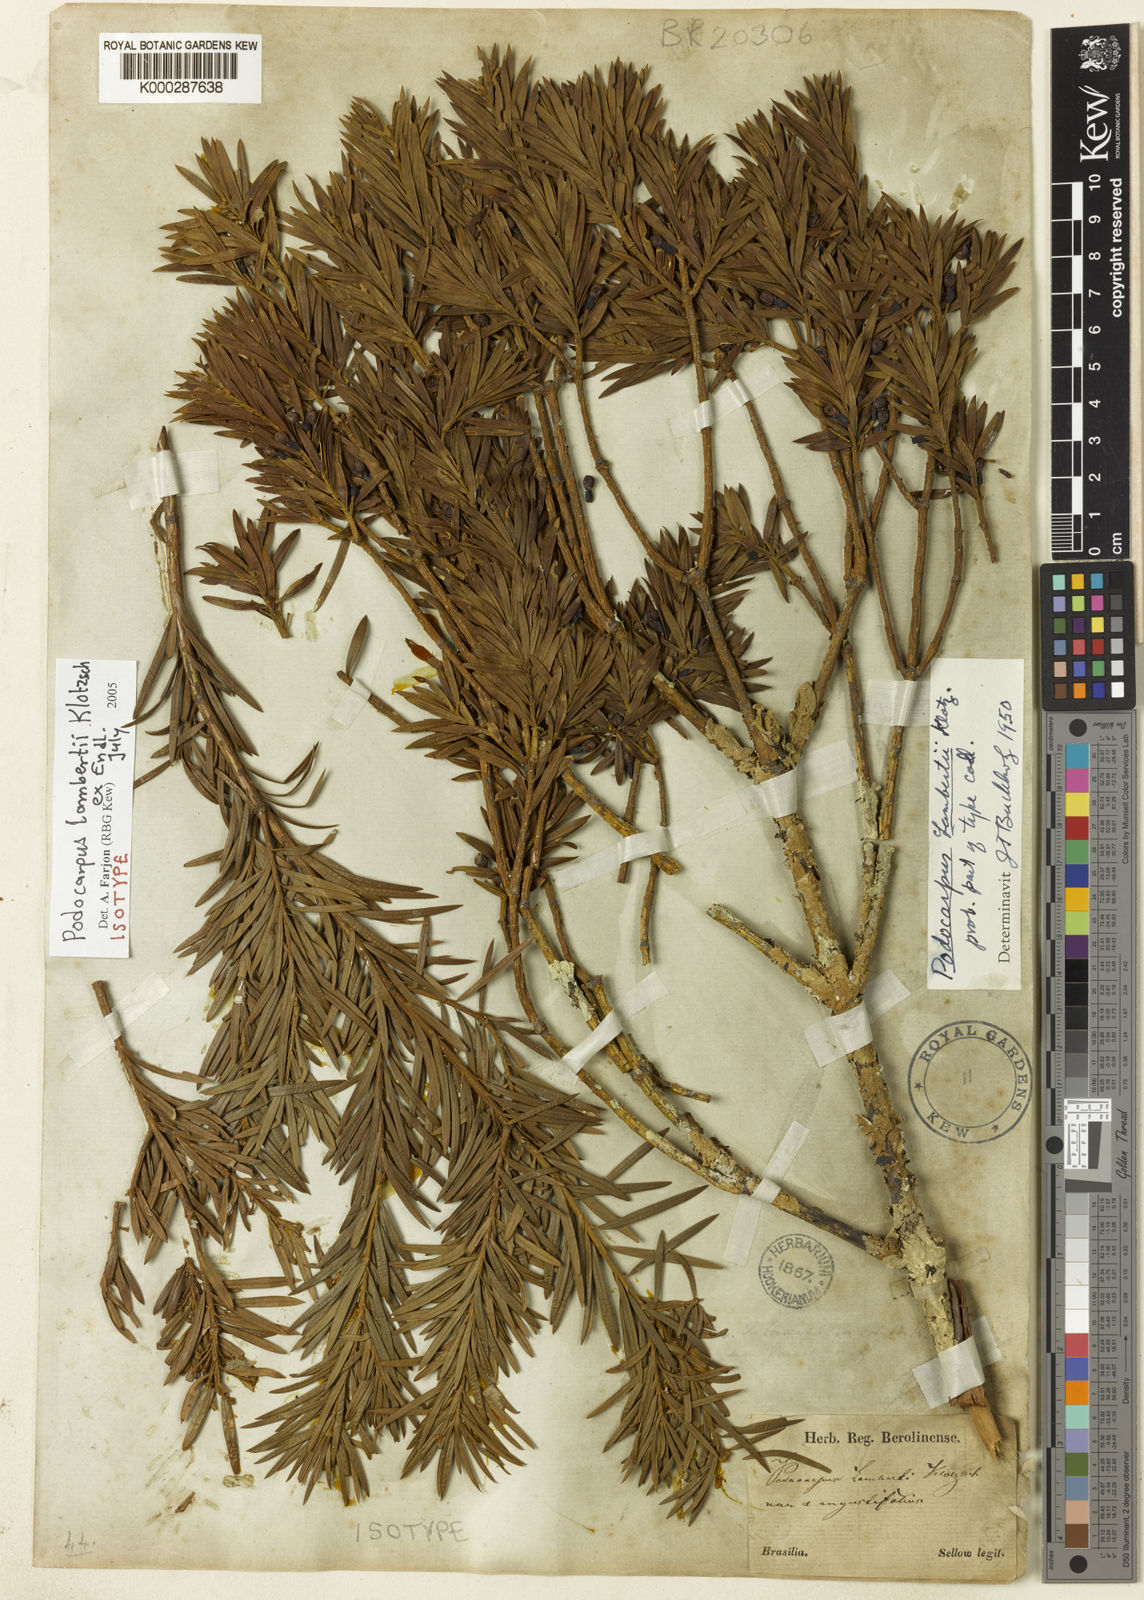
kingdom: Plantae
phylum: Tracheophyta
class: Pinopsida
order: Pinales
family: Podocarpaceae
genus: Podocarpus
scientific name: Podocarpus lambertii
